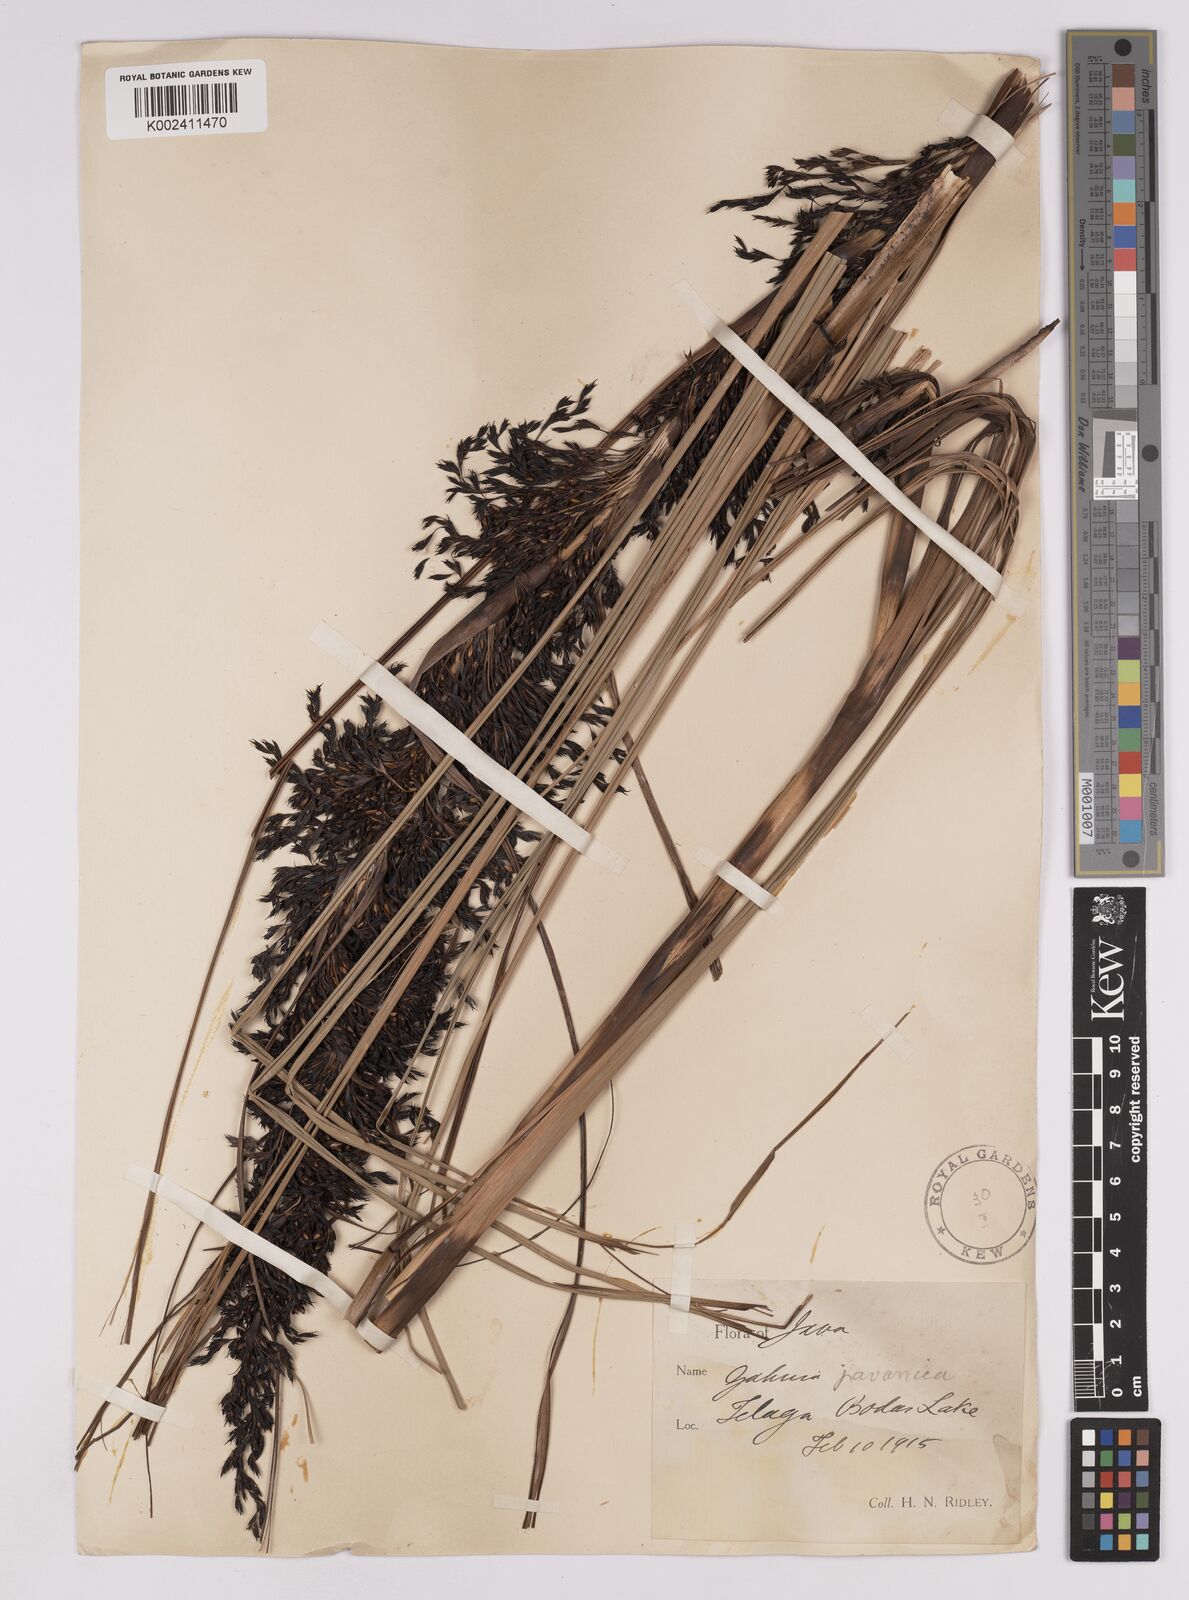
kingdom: Plantae
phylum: Tracheophyta
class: Liliopsida
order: Poales
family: Cyperaceae
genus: Gahnia
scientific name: Gahnia javanica
